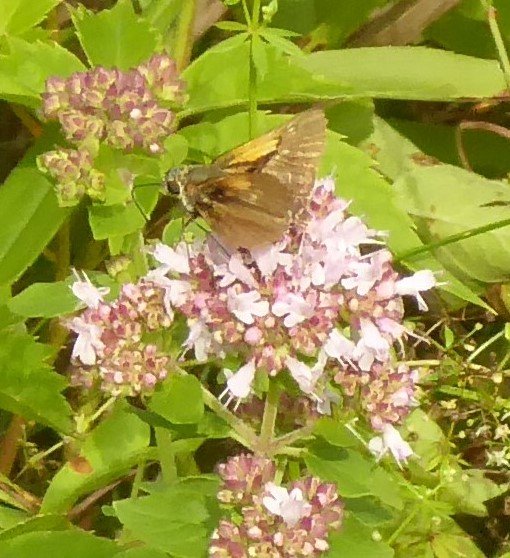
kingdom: Animalia
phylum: Arthropoda
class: Insecta
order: Lepidoptera
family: Hesperiidae
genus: Polites
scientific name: Polites themistocles
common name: Tawny-edged Skipper
